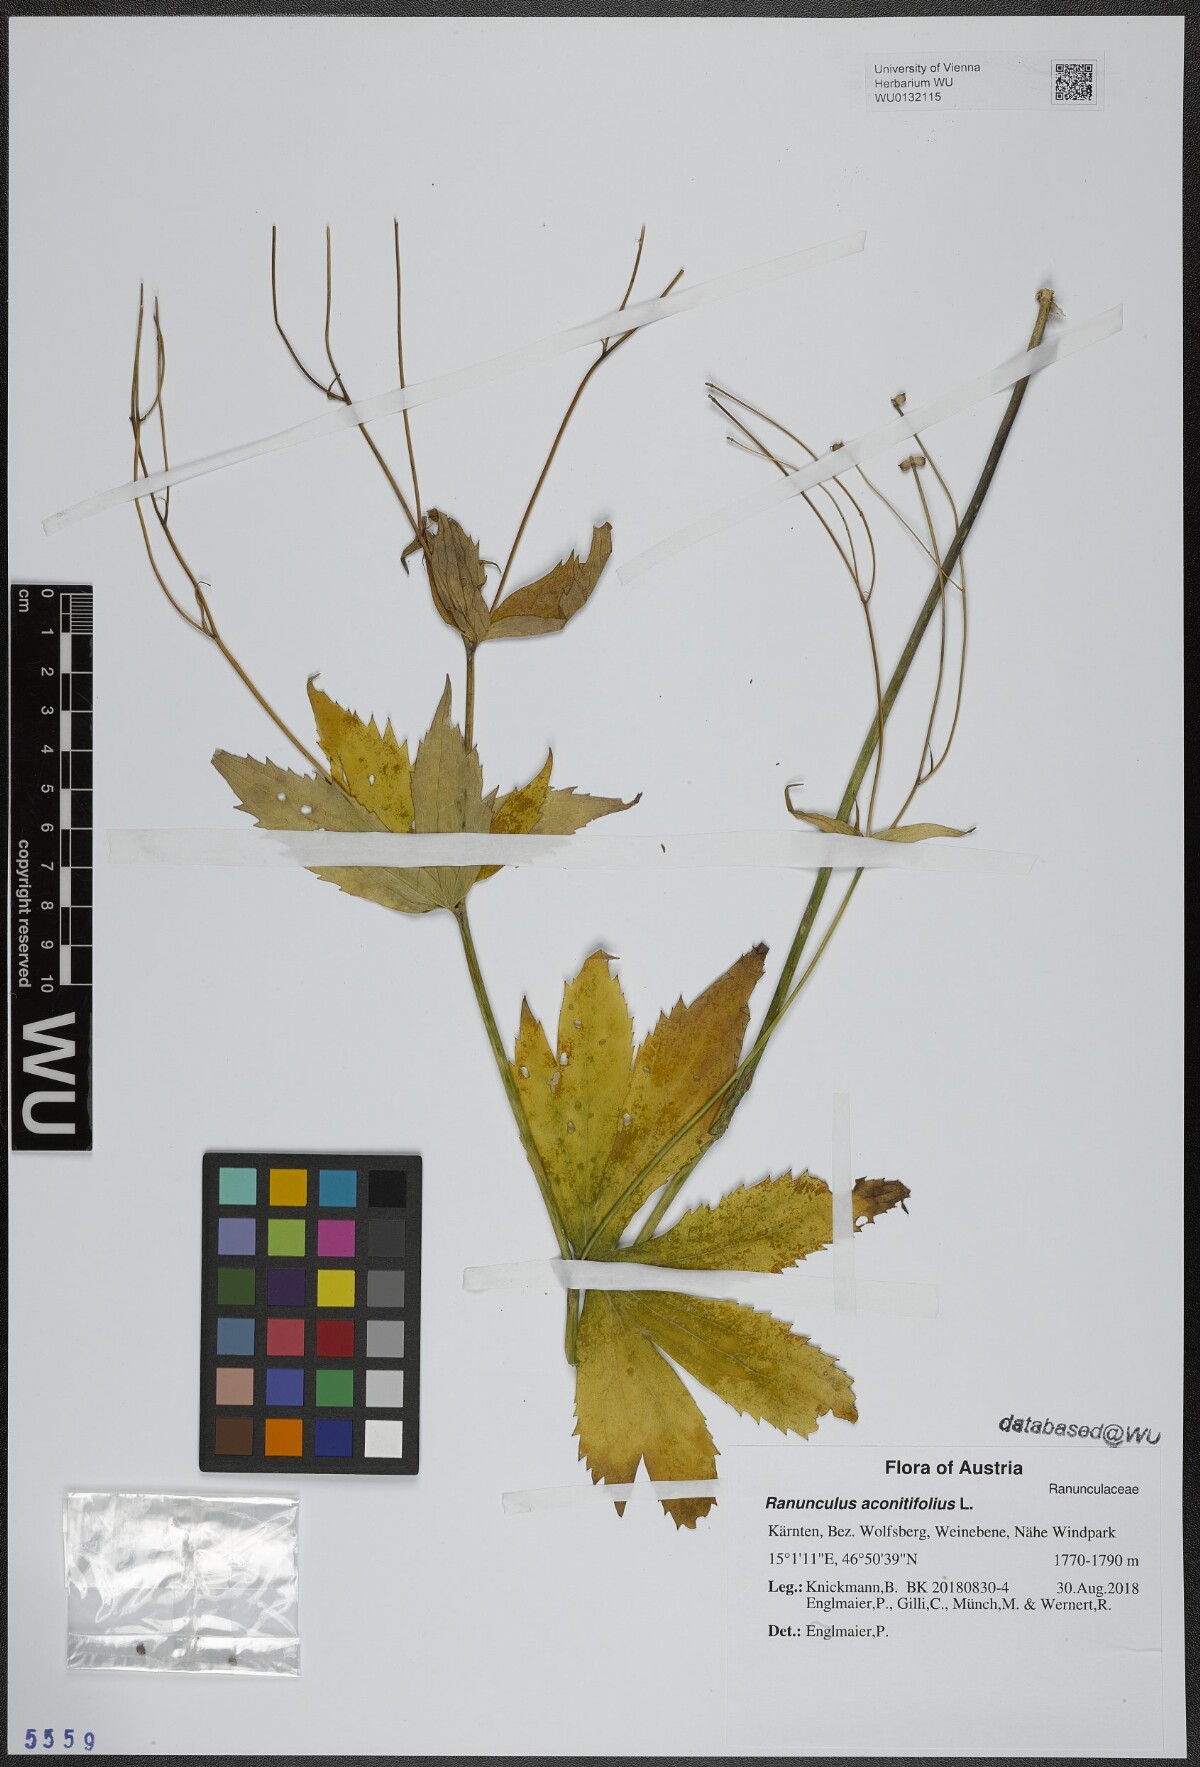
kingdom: Plantae
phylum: Tracheophyta
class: Magnoliopsida
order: Ranunculales
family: Ranunculaceae
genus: Ranunculus
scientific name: Ranunculus aconitifolius
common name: Aconite-leaved buttercup
